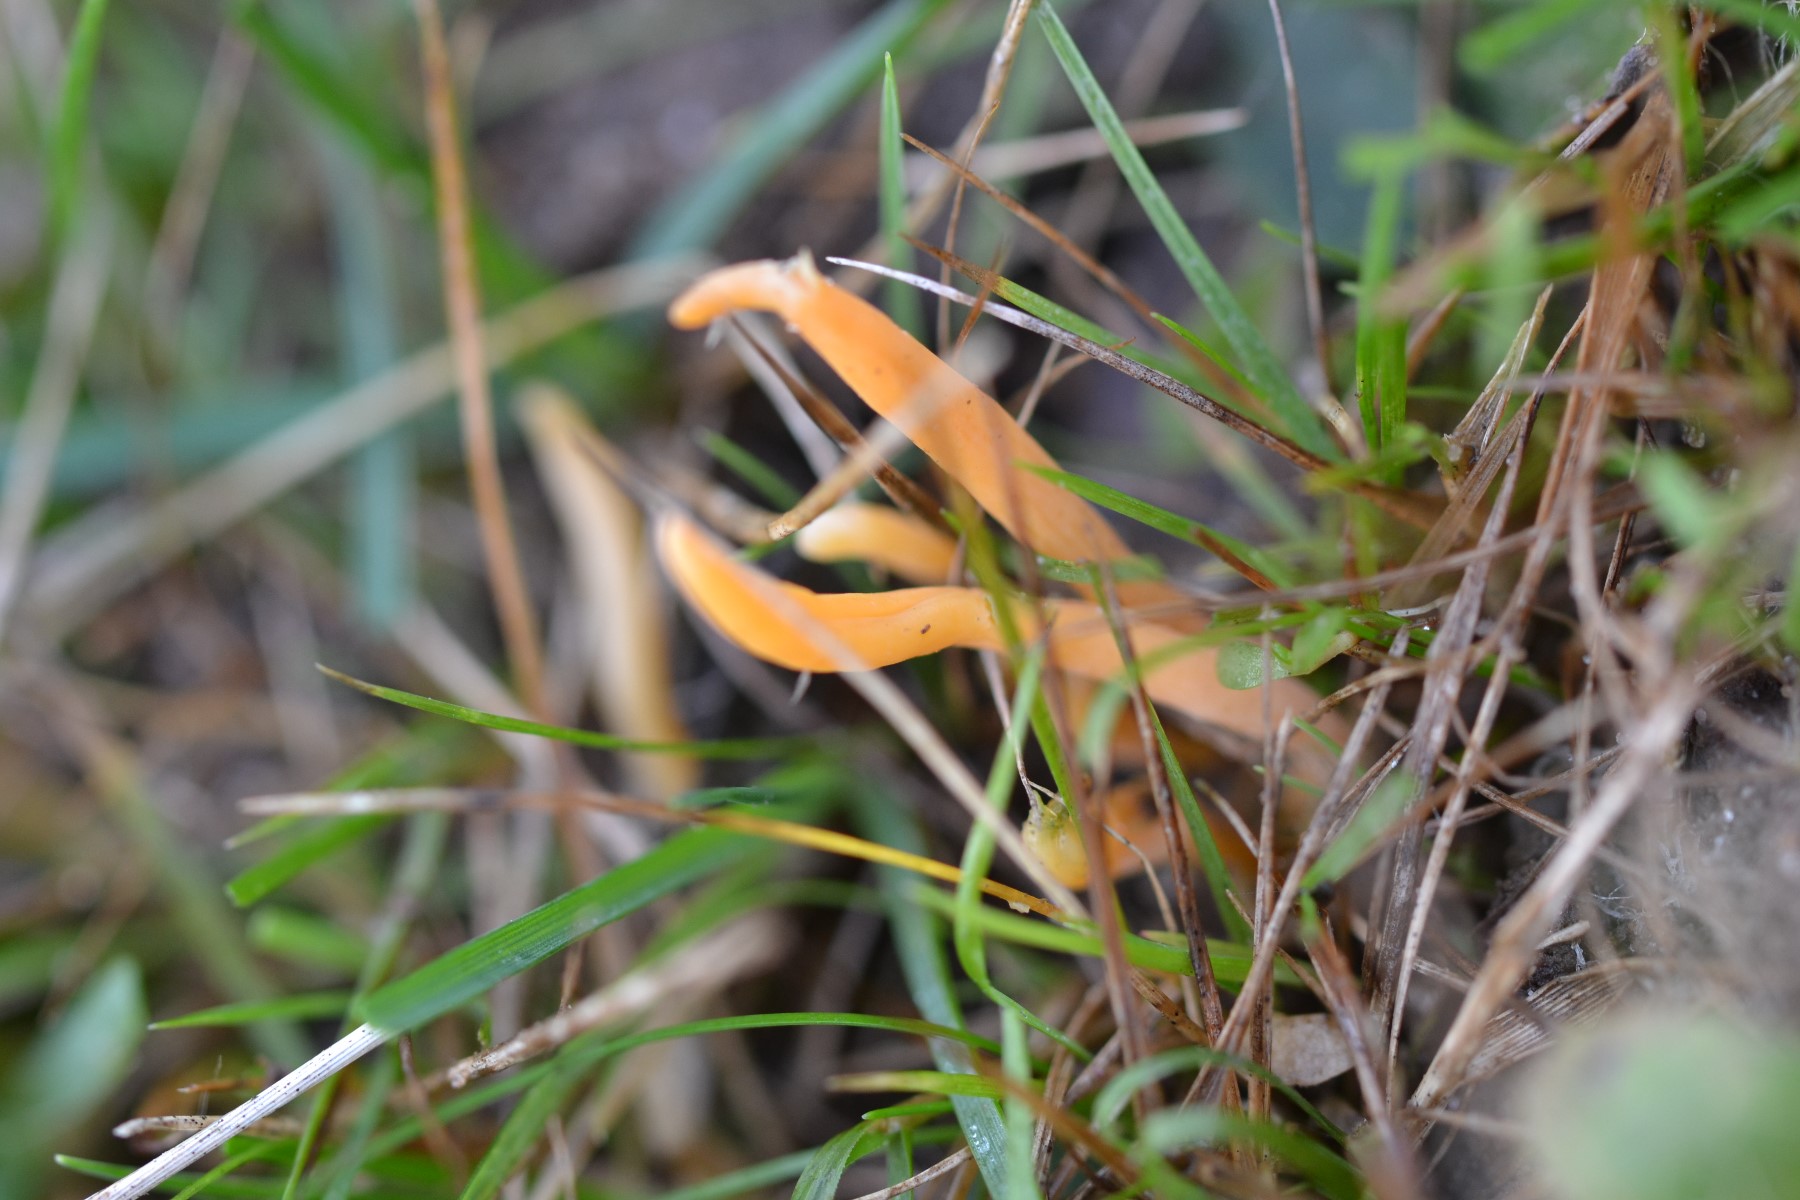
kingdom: Fungi
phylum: Basidiomycota
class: Agaricomycetes
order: Agaricales
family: Clavariaceae
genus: Clavulinopsis
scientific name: Clavulinopsis
